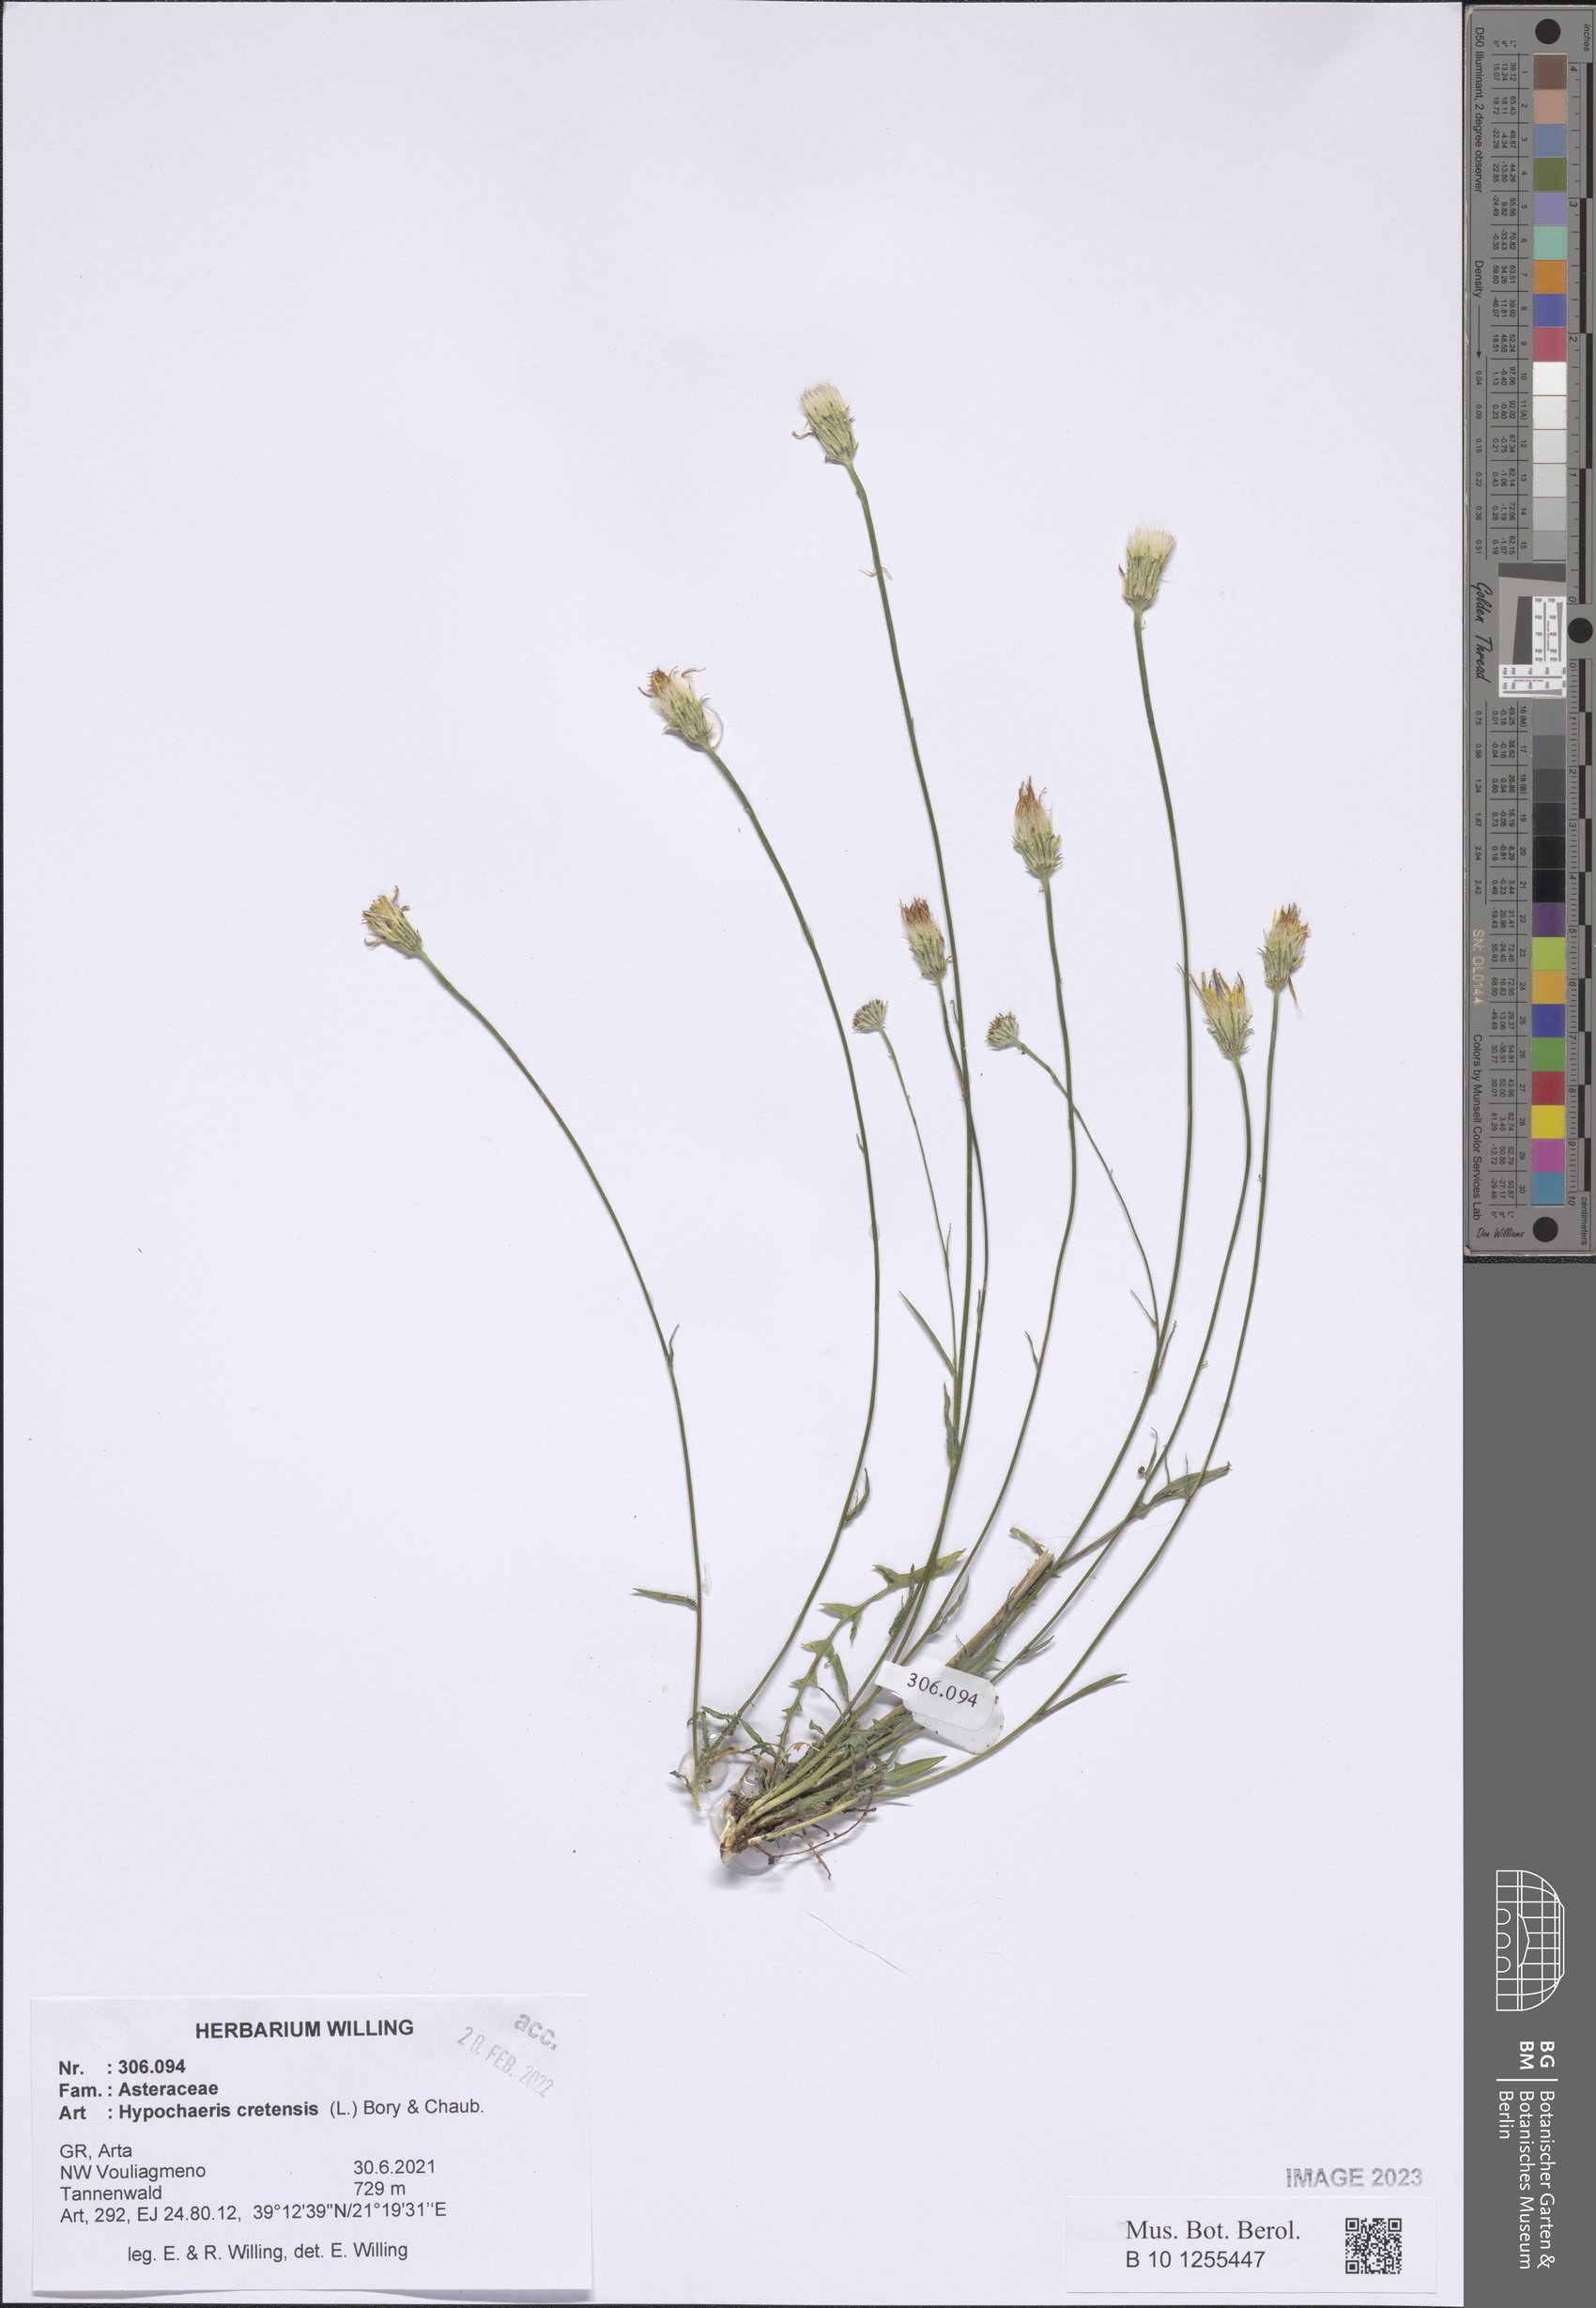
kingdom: Plantae
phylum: Tracheophyta
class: Magnoliopsida
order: Asterales
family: Asteraceae
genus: Hypochaeris
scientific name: Hypochaeris cretensis
